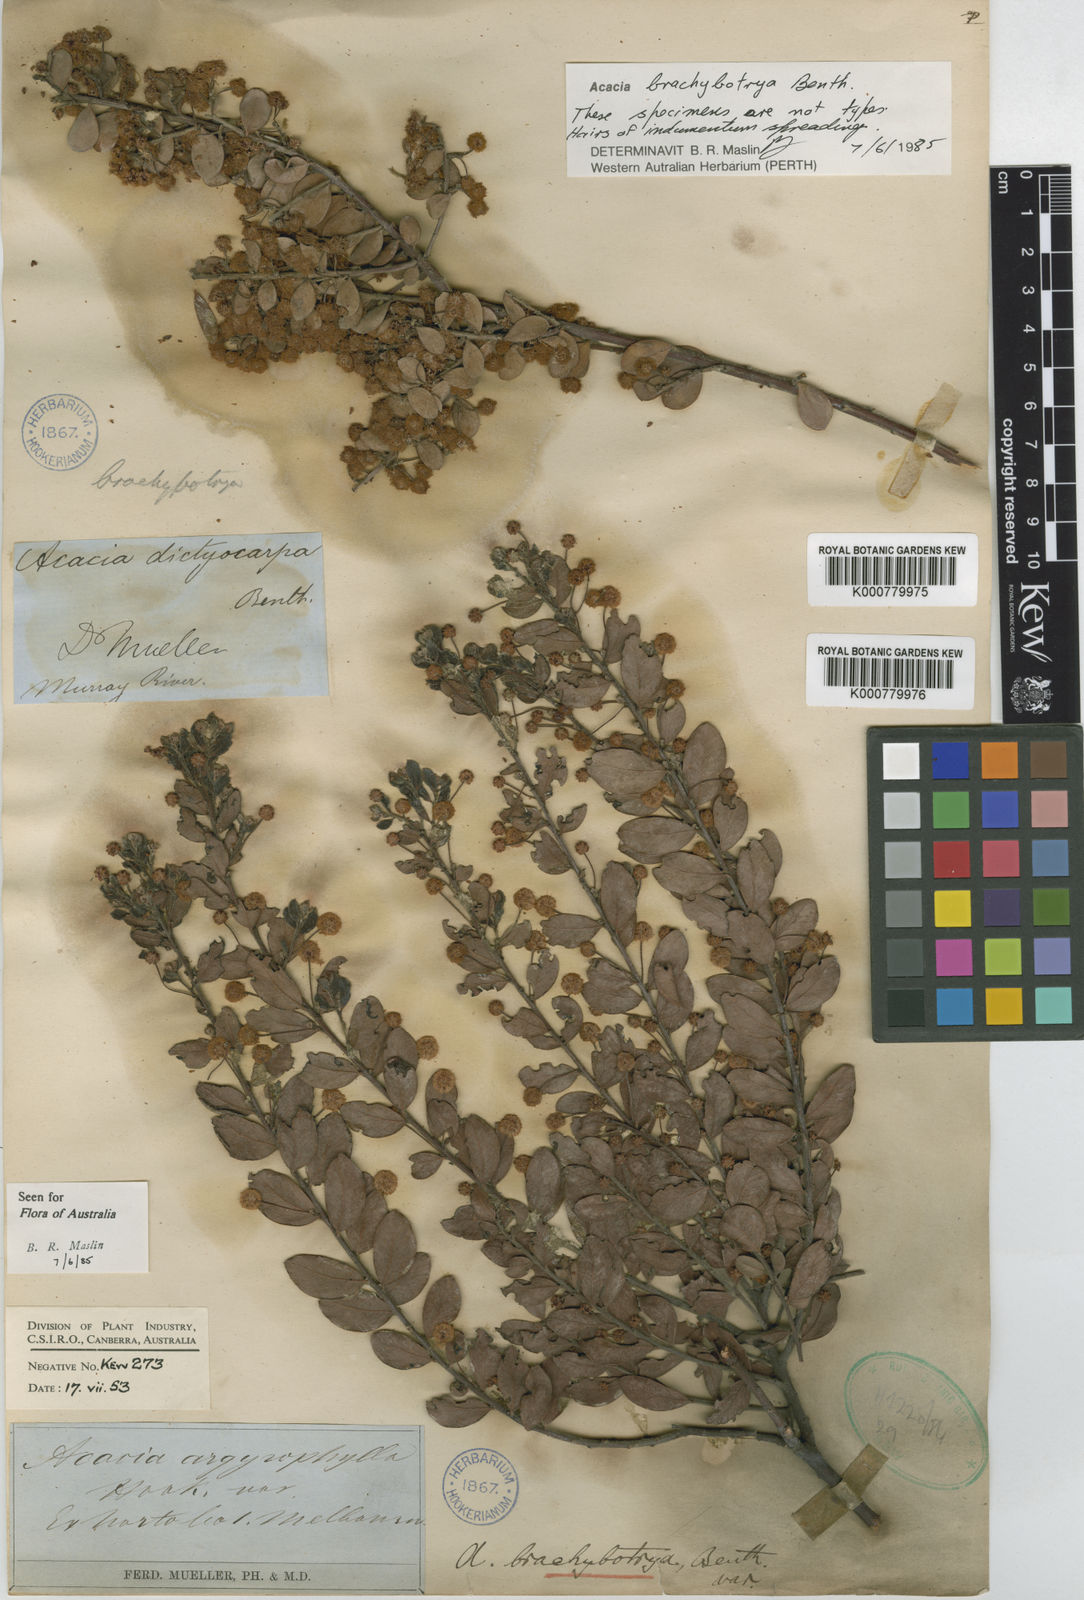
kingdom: Plantae
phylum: Tracheophyta
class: Magnoliopsida
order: Fabales
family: Fabaceae
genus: Acacia
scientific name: Acacia brachybotrya
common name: Grey mulga
